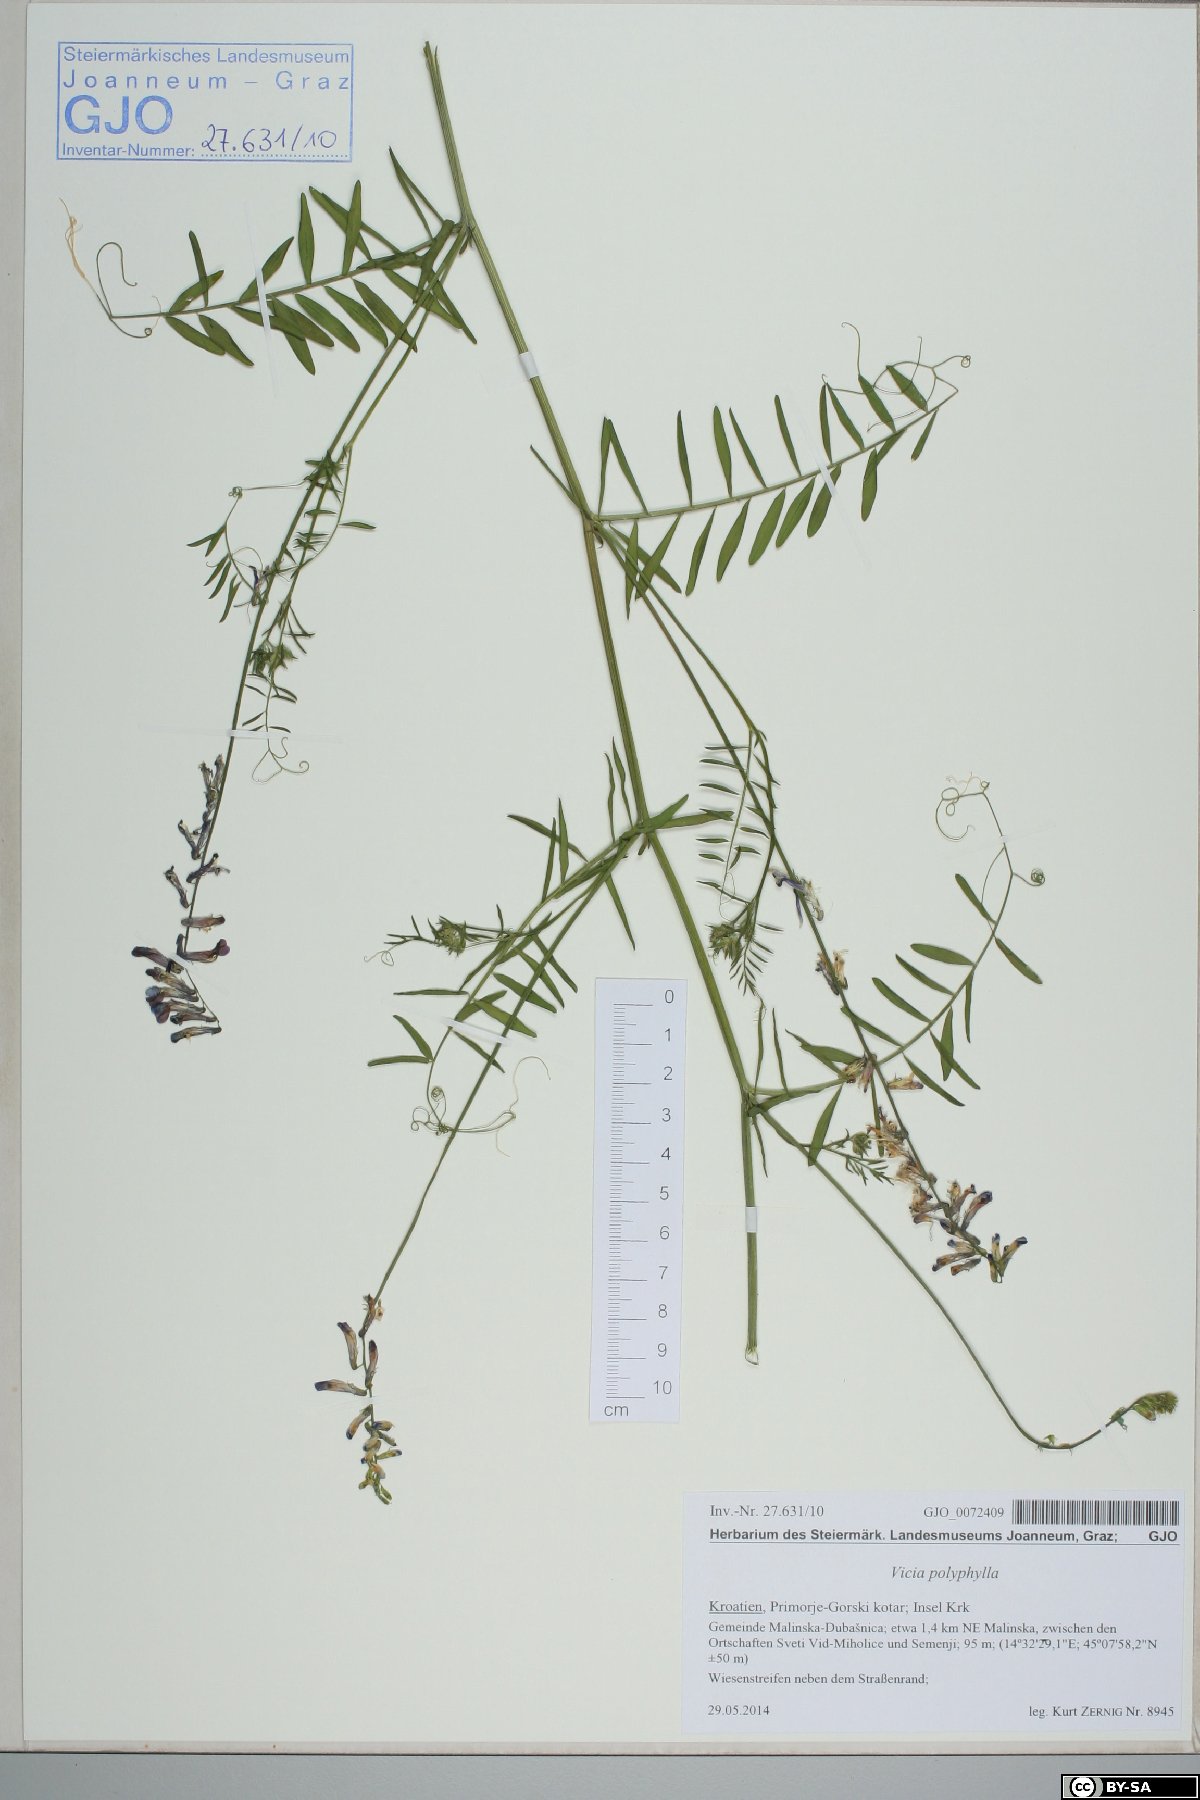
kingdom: Plantae
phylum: Tracheophyta
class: Magnoliopsida
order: Fabales
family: Fabaceae
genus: Vicia
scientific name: Vicia tenuifolia
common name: Fine-leaved vetch
